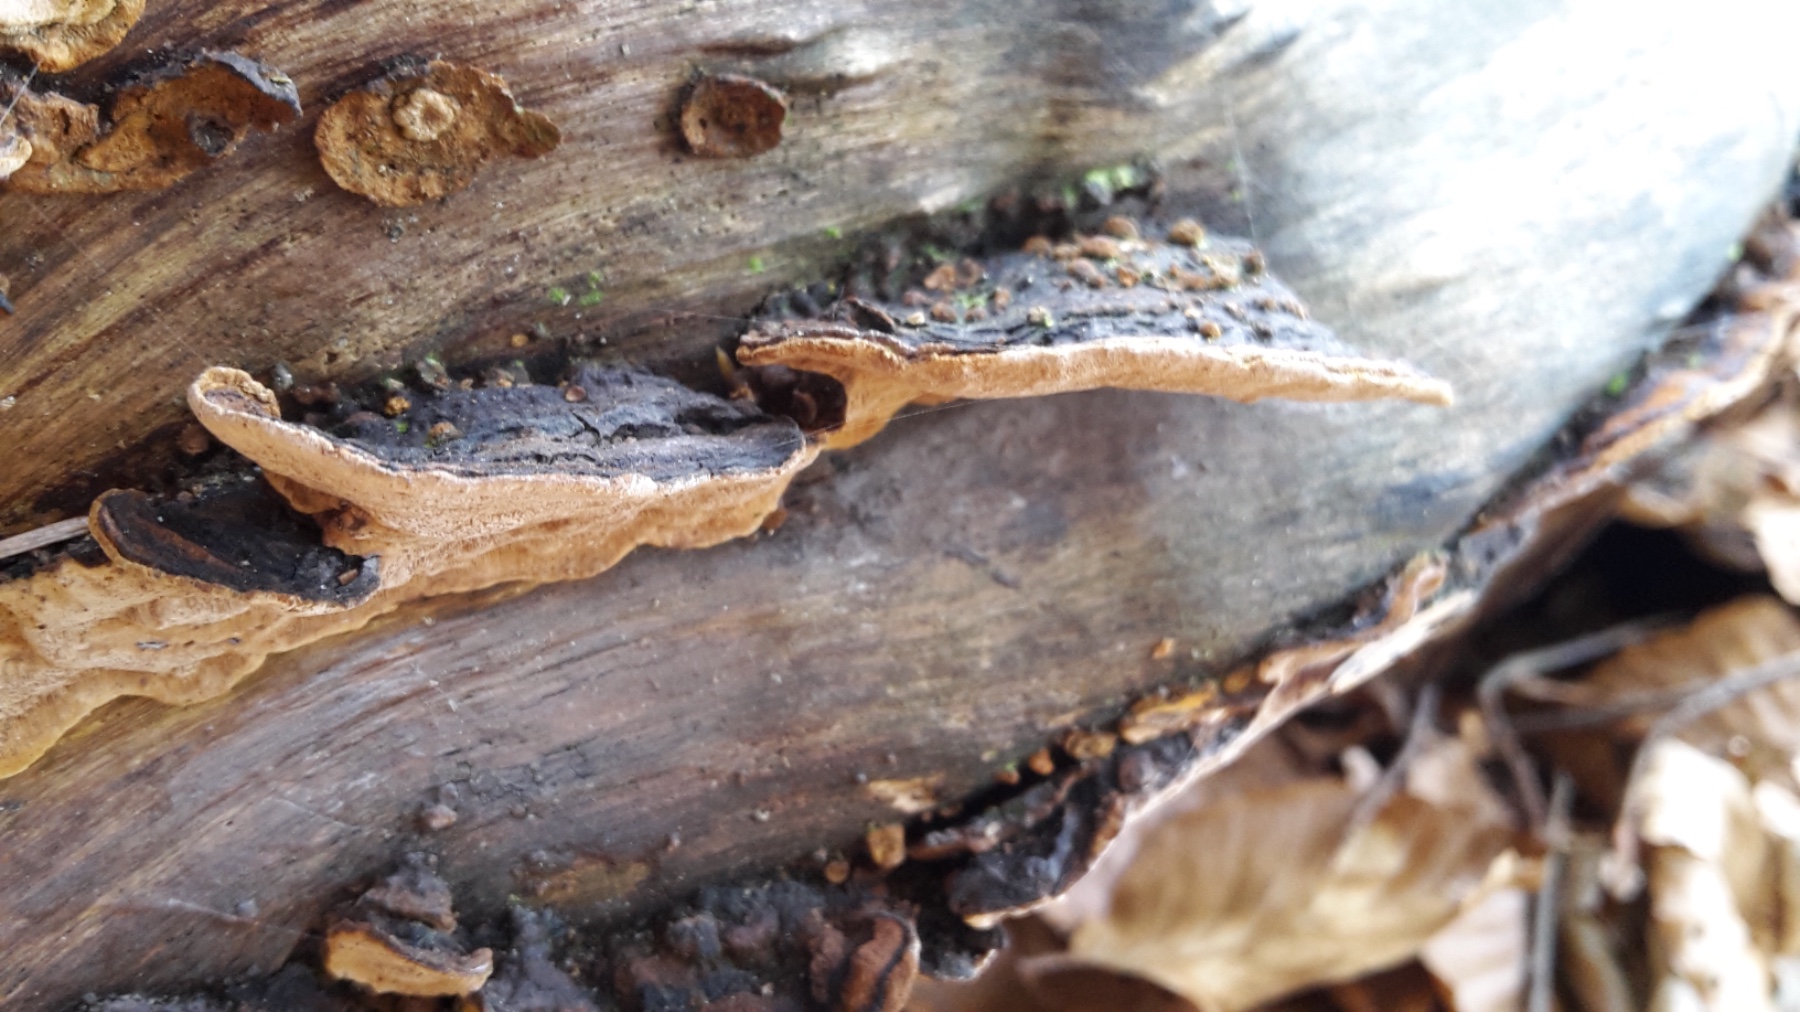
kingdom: Fungi
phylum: Basidiomycota
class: Agaricomycetes
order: Hymenochaetales
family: Hymenochaetaceae
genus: Phellinopsis
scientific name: Phellinopsis conchata
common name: pile-ildporesvamp
